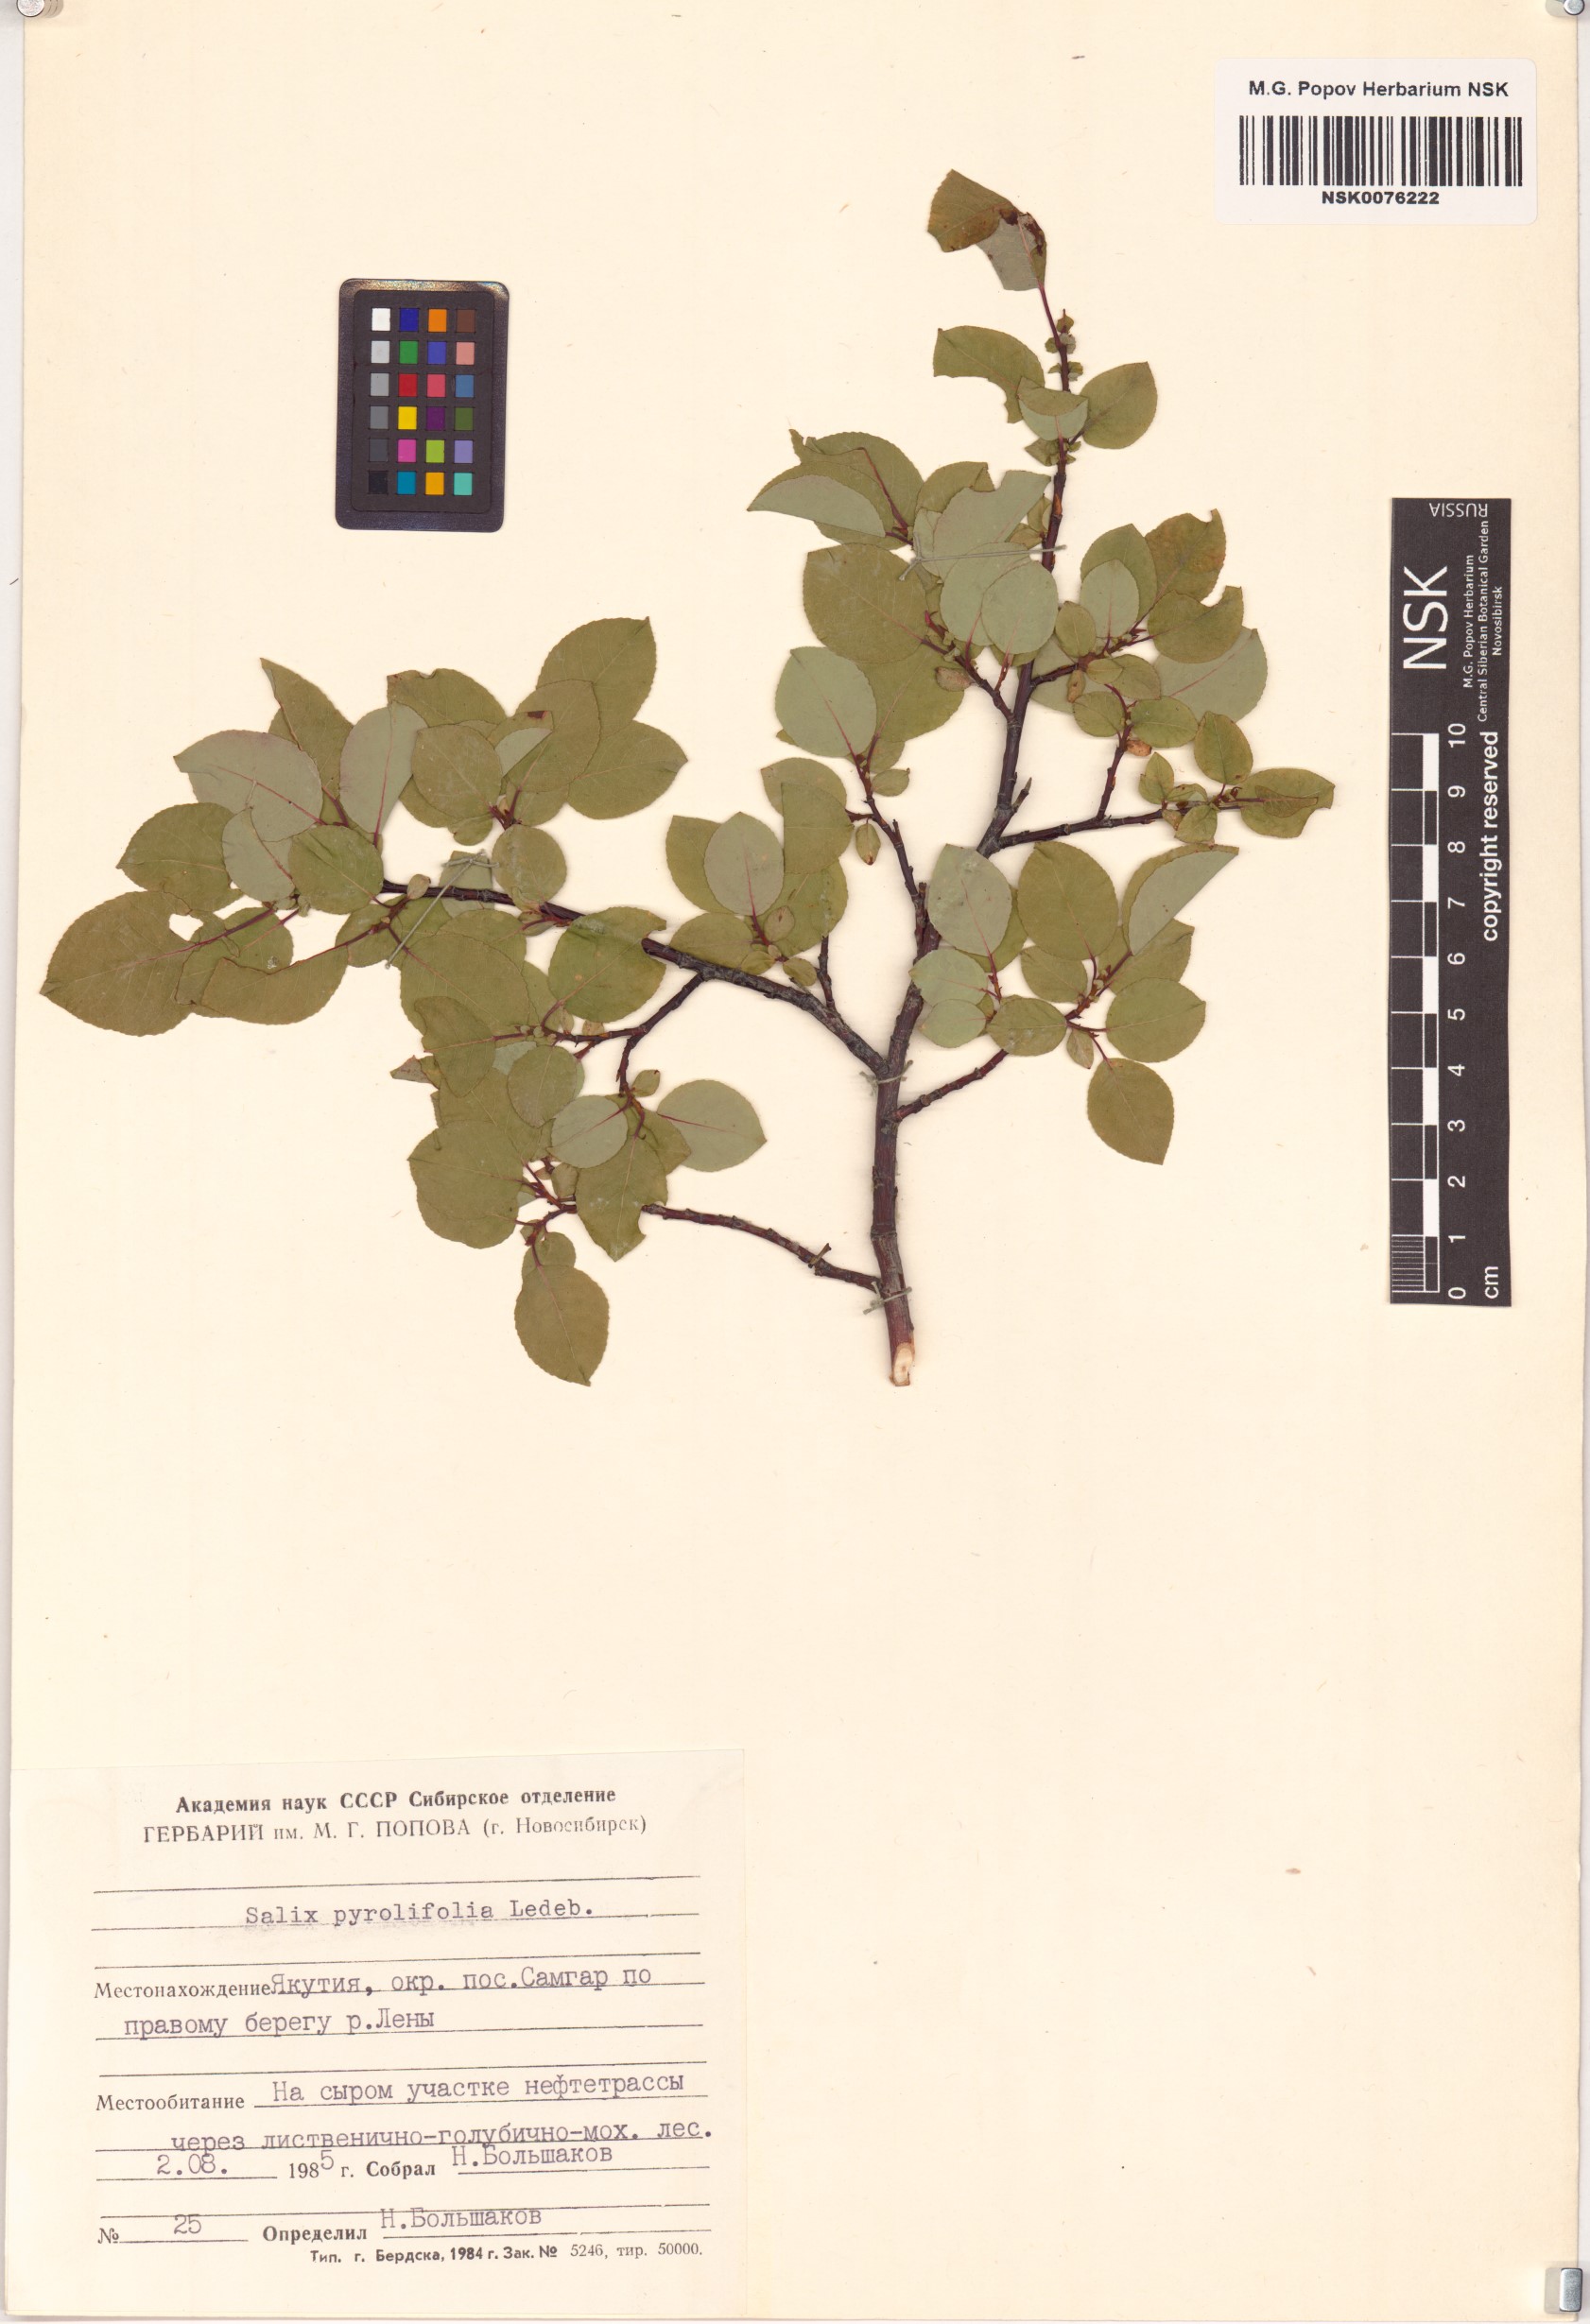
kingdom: Plantae
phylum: Tracheophyta
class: Magnoliopsida
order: Malpighiales
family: Salicaceae
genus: Salix
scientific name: Salix pyrolifolia
